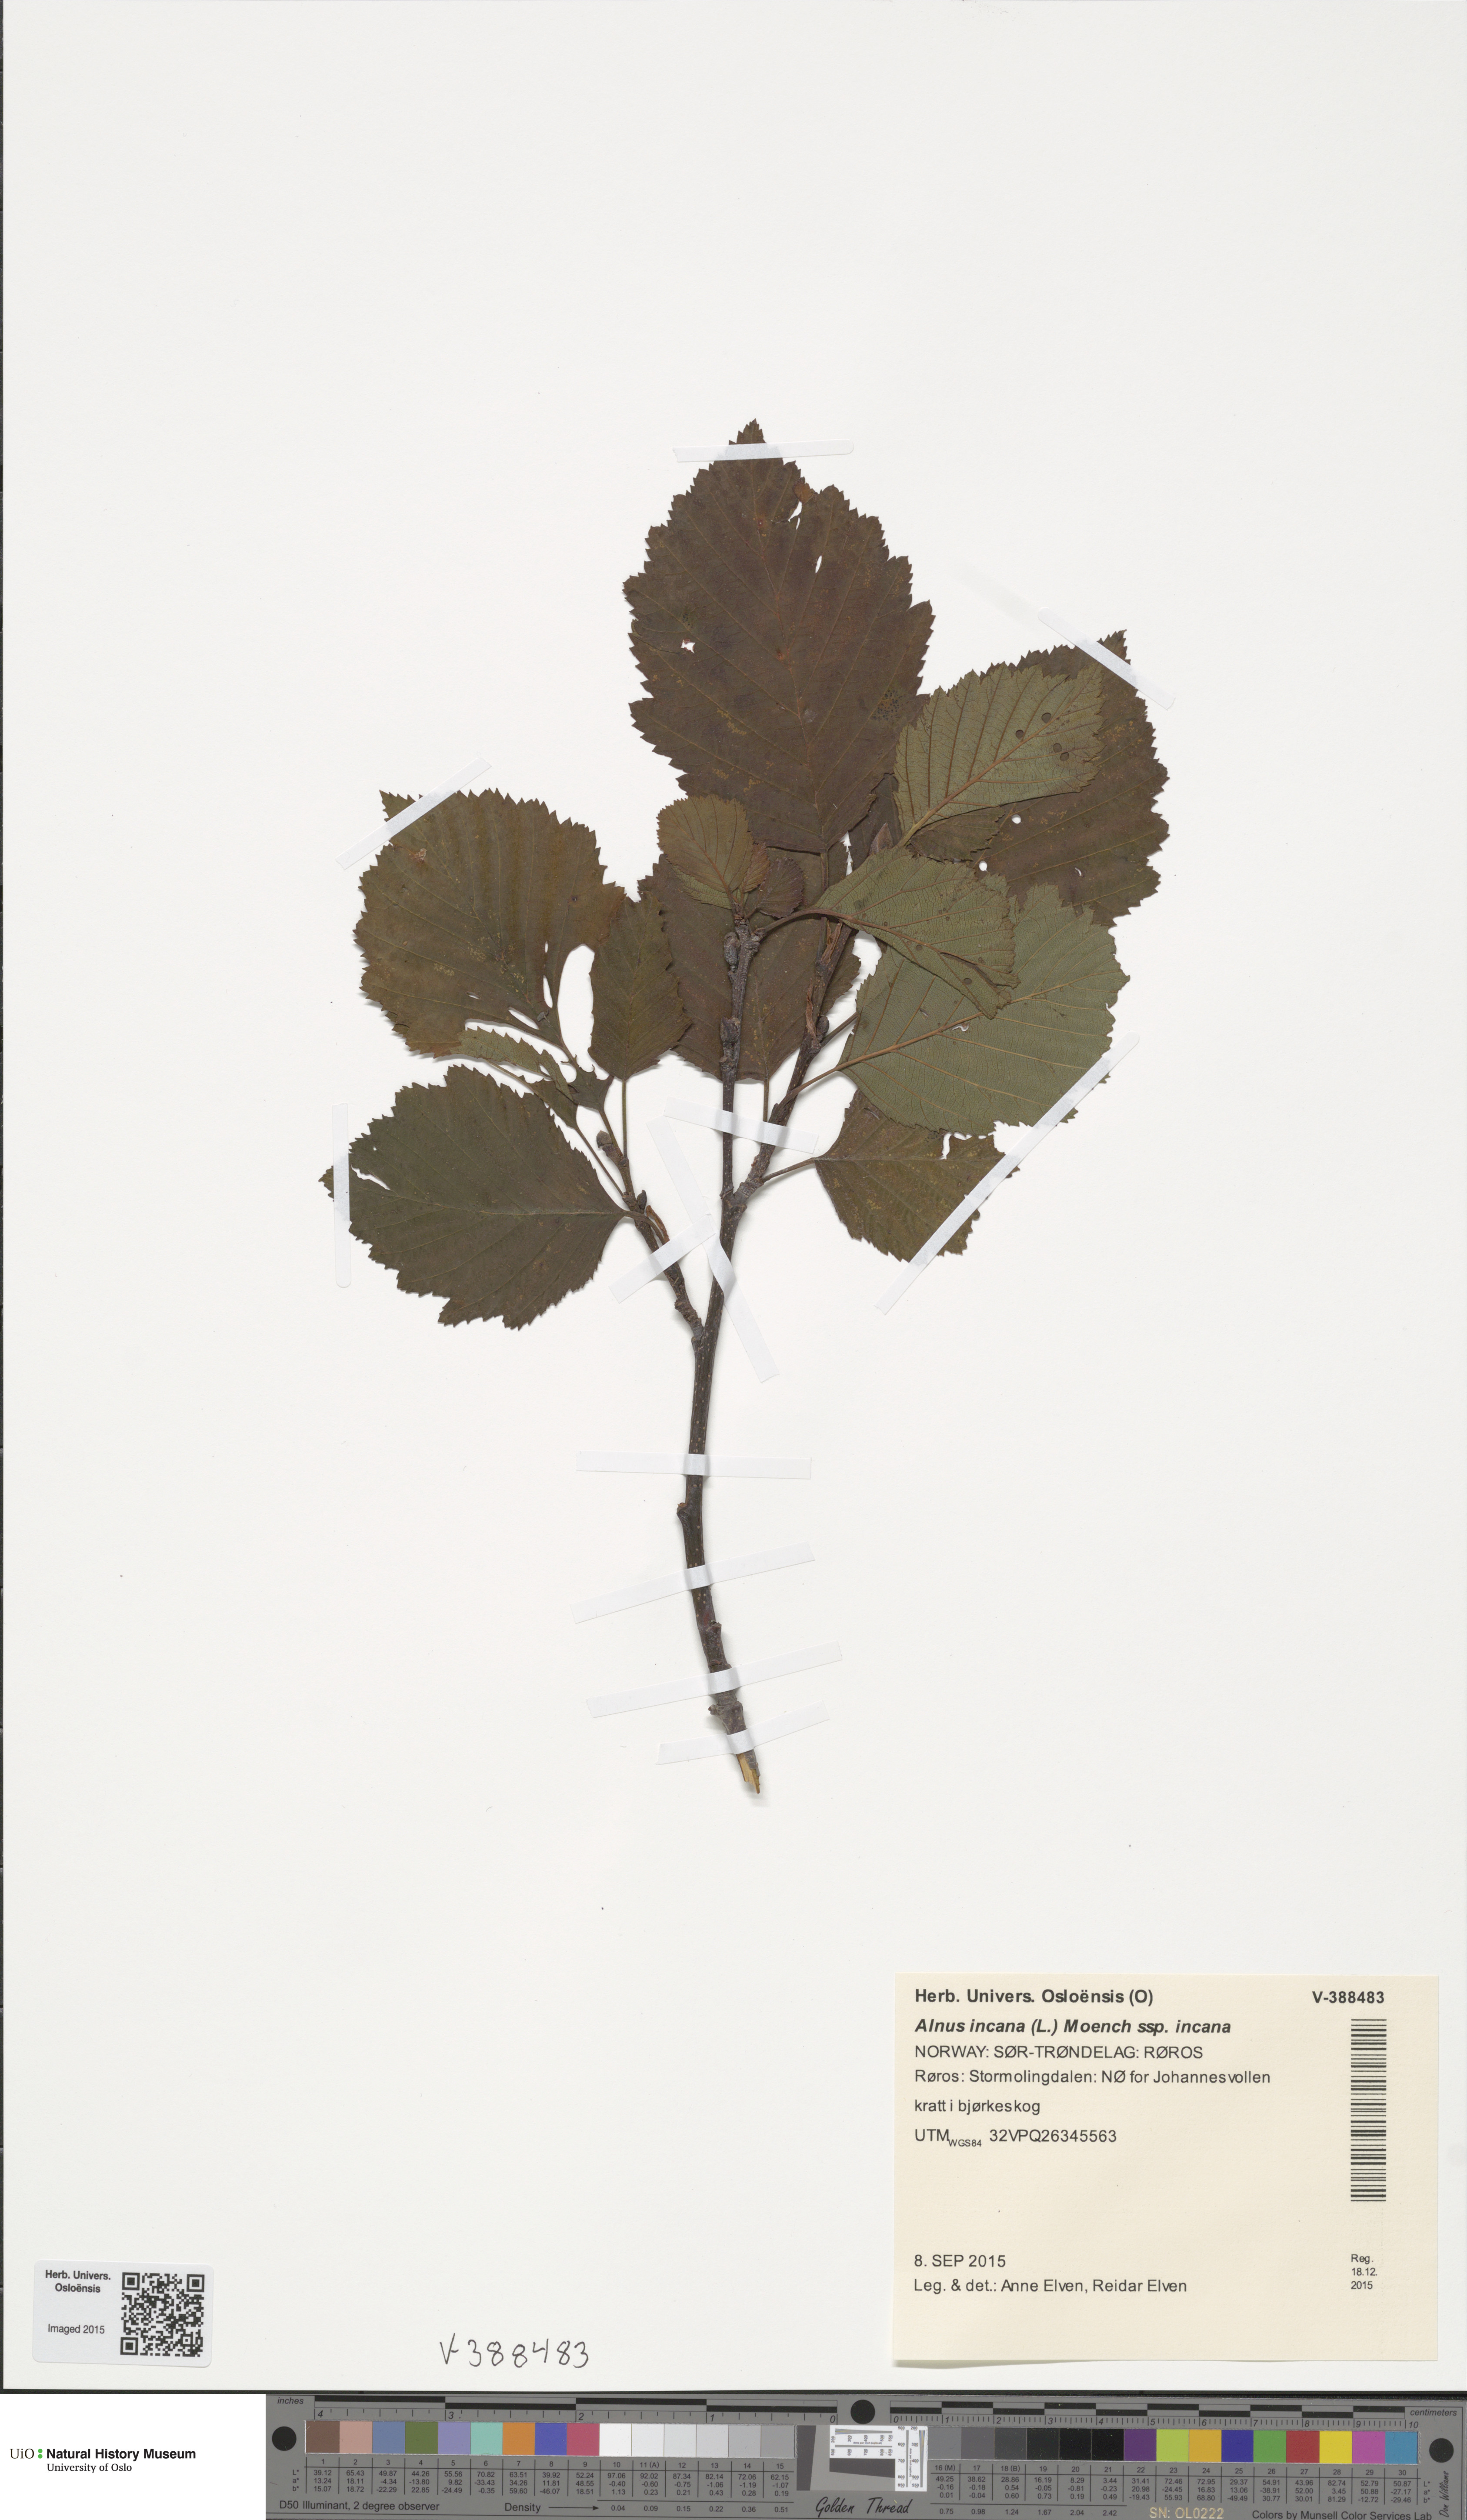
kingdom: Plantae
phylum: Tracheophyta
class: Magnoliopsida
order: Fagales
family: Betulaceae
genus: Alnus
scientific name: Alnus incana
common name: Grey alder
